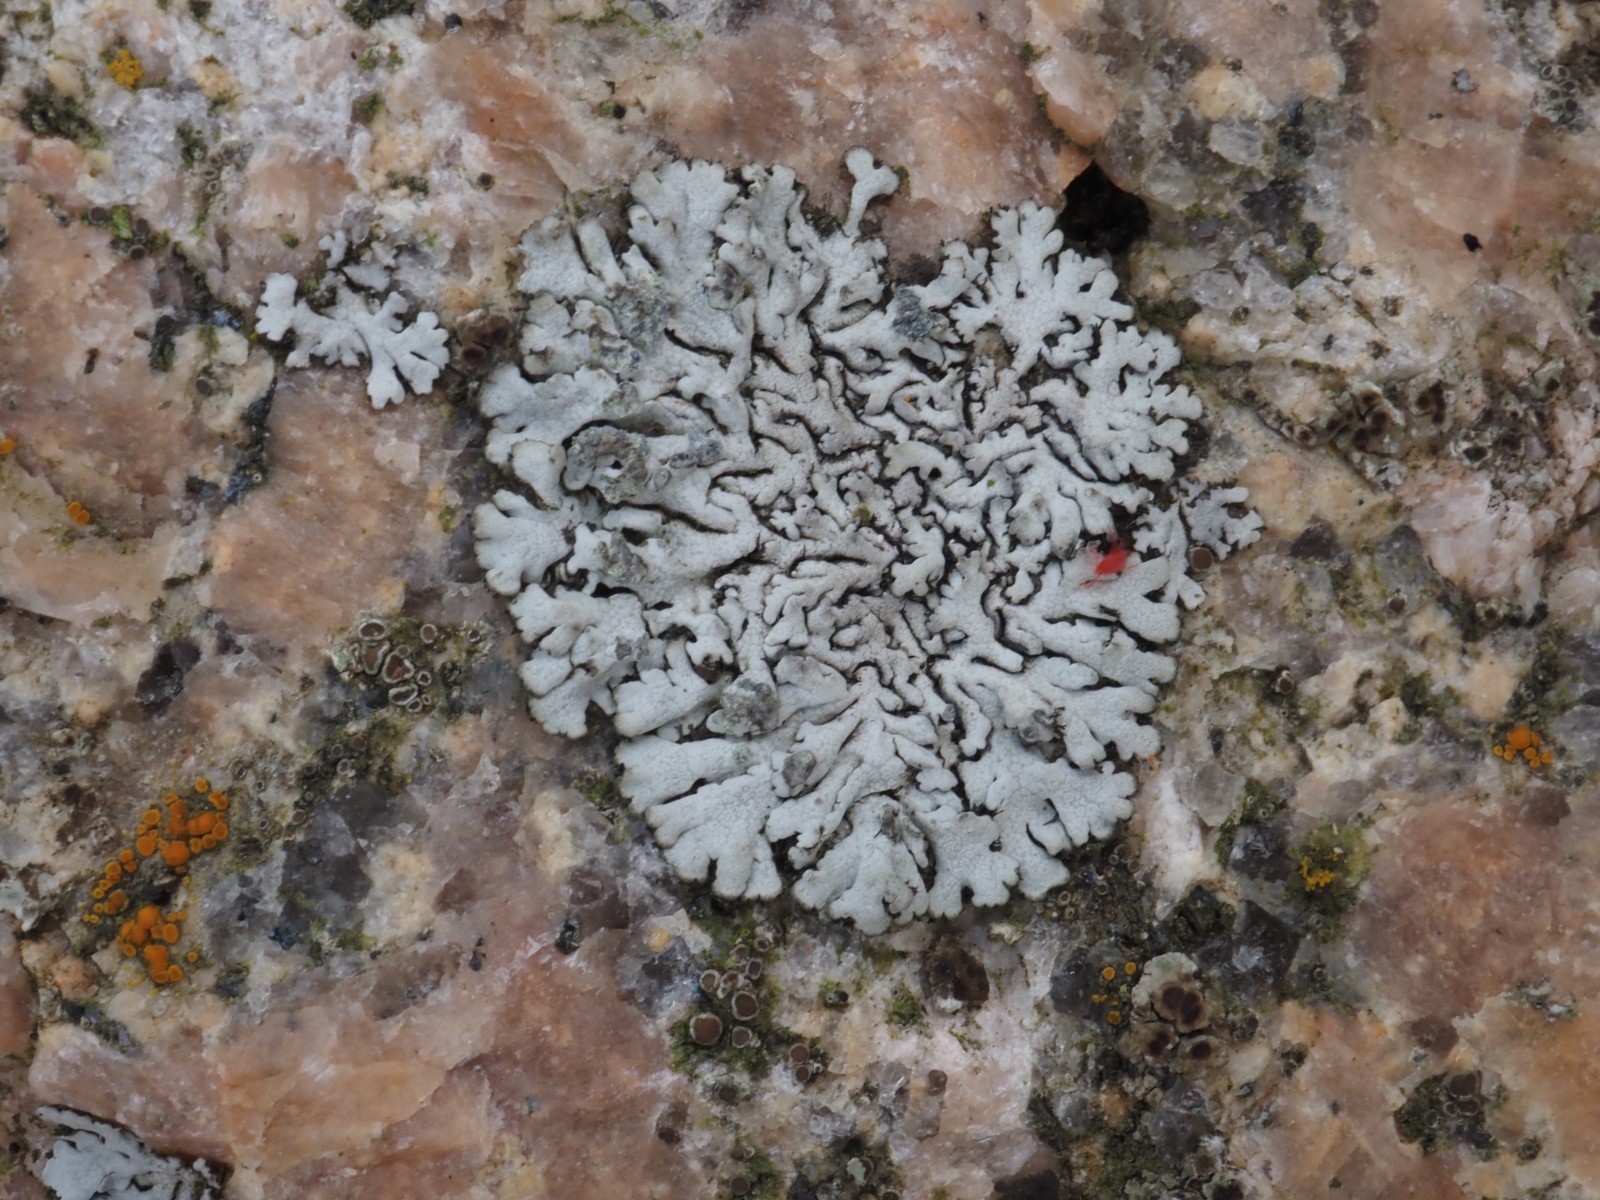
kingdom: Fungi
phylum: Ascomycota
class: Lecanoromycetes
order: Caliciales
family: Physciaceae
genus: Physcia
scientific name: Physcia caesia
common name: blågrå rosetlav
